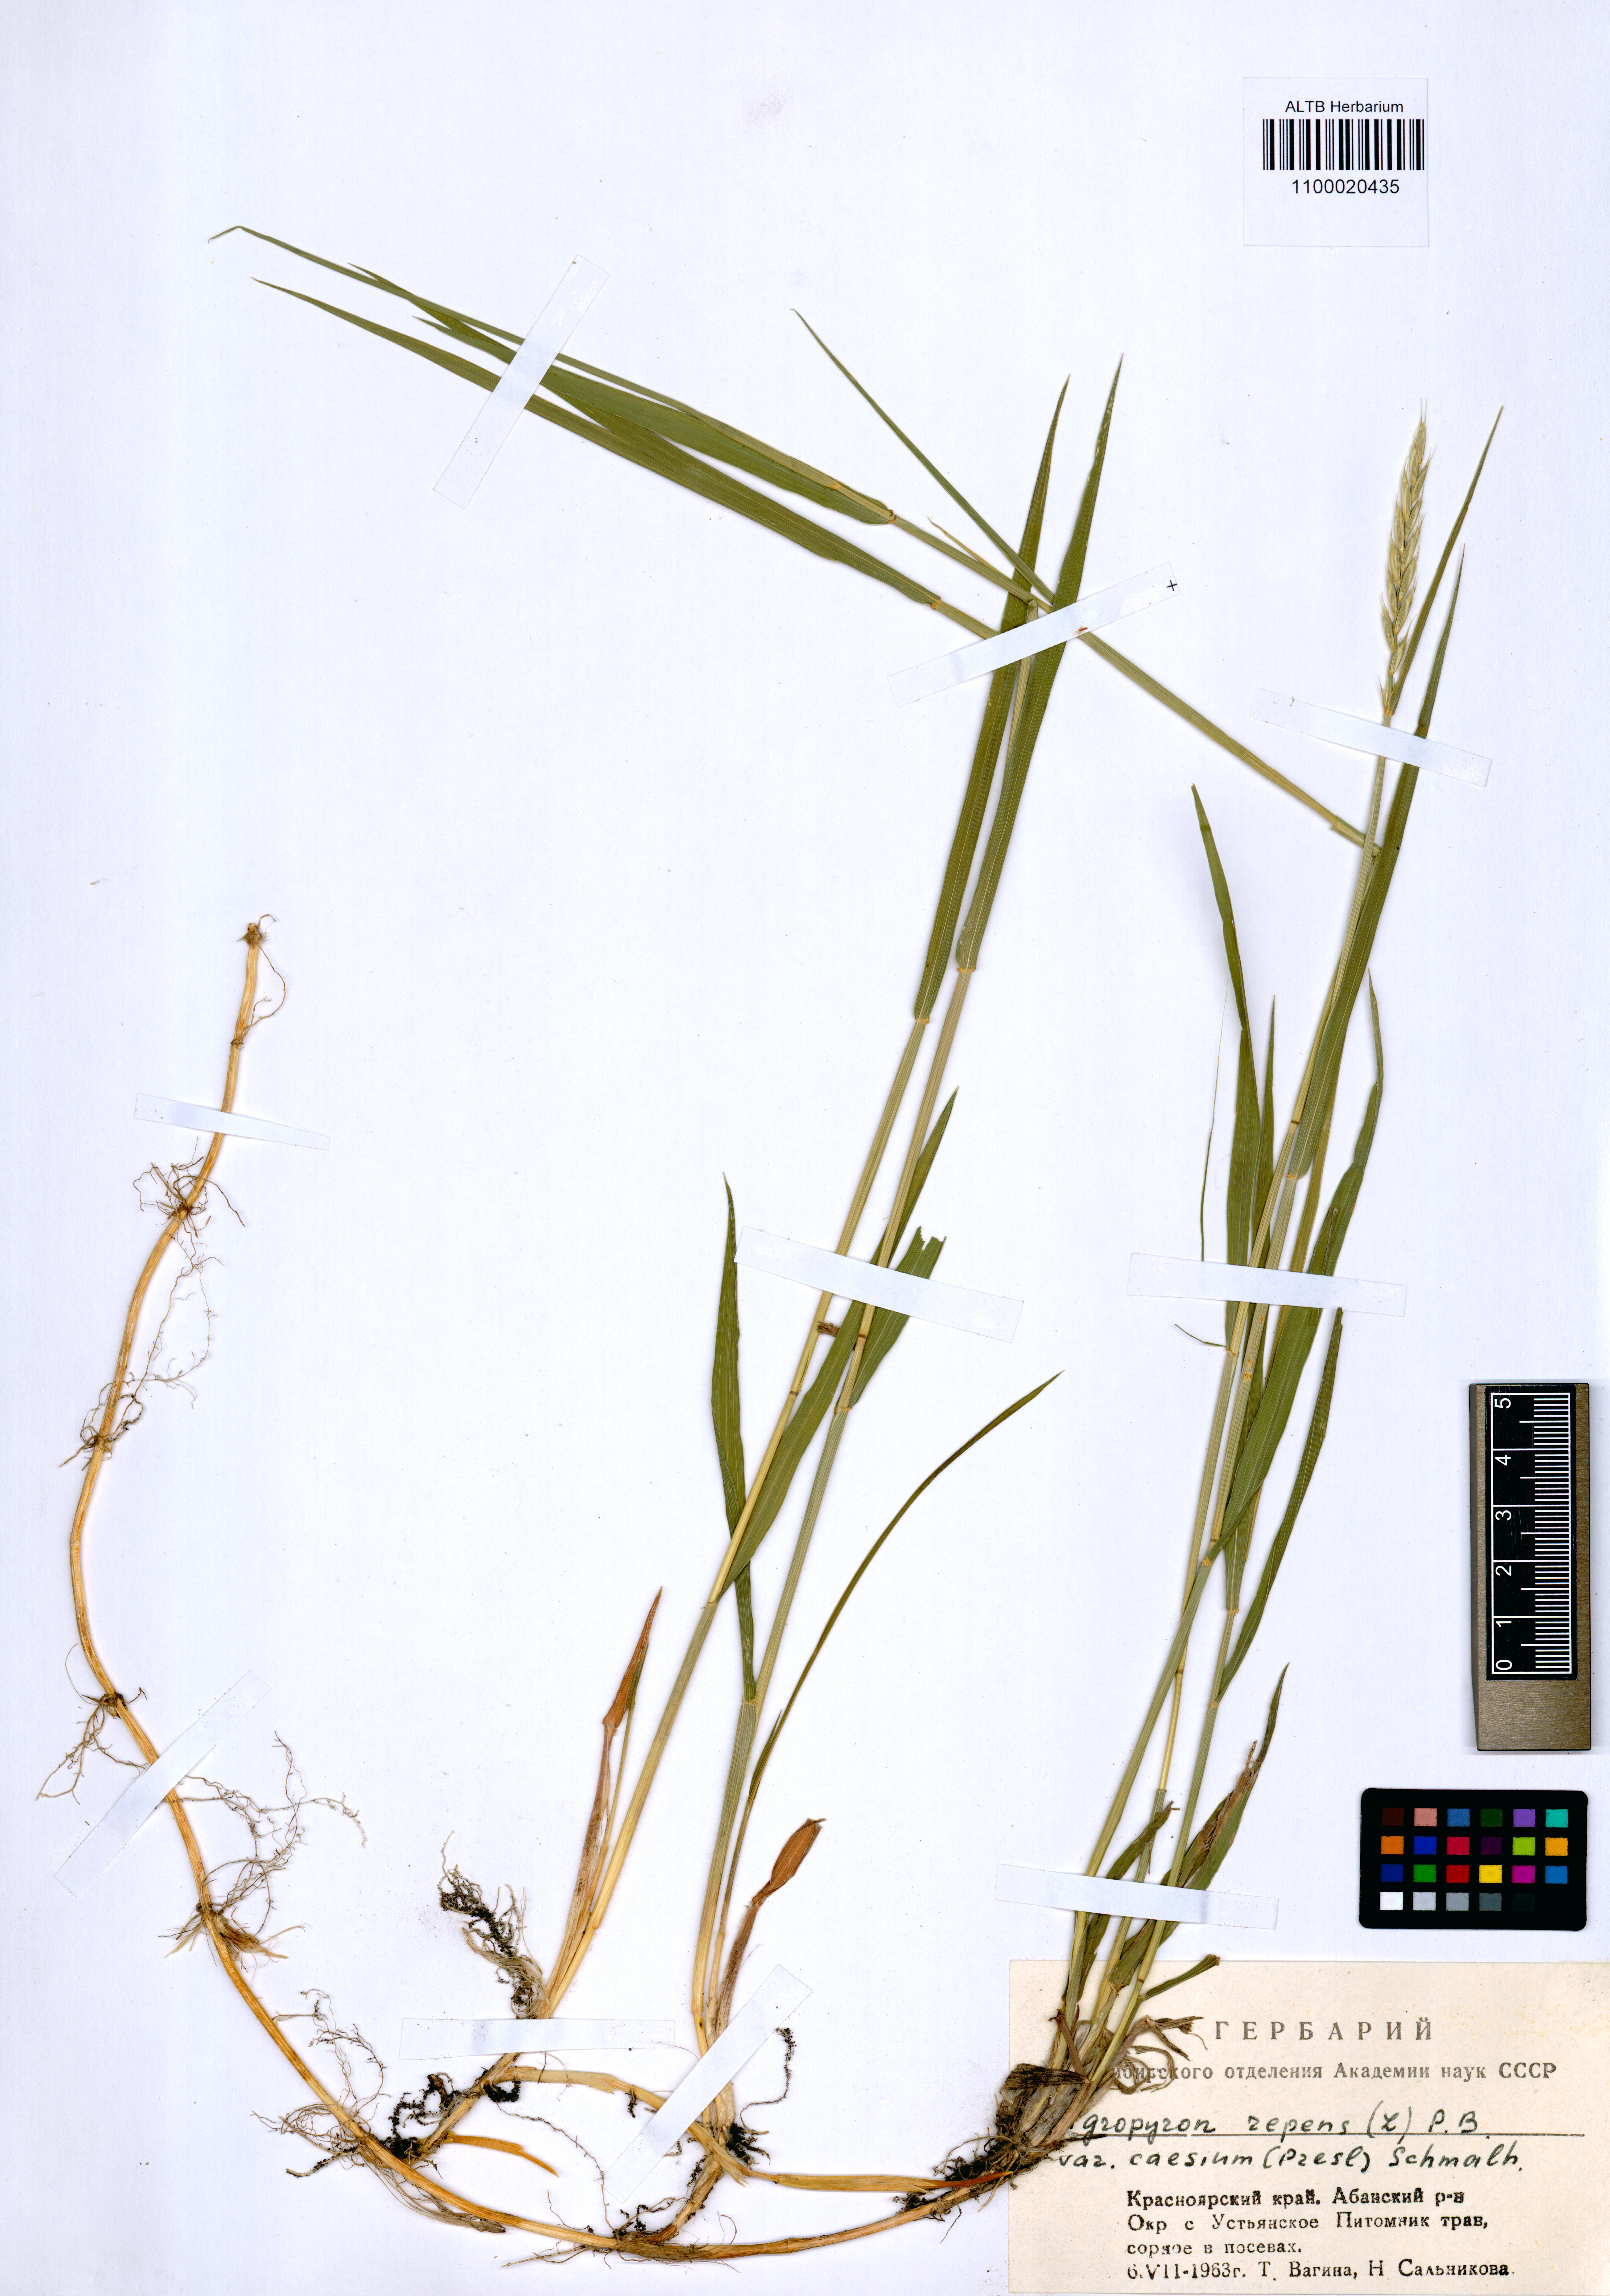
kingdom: Plantae
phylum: Tracheophyta
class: Liliopsida
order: Poales
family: Poaceae
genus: Elymus
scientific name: Elymus repens
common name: Quackgrass
